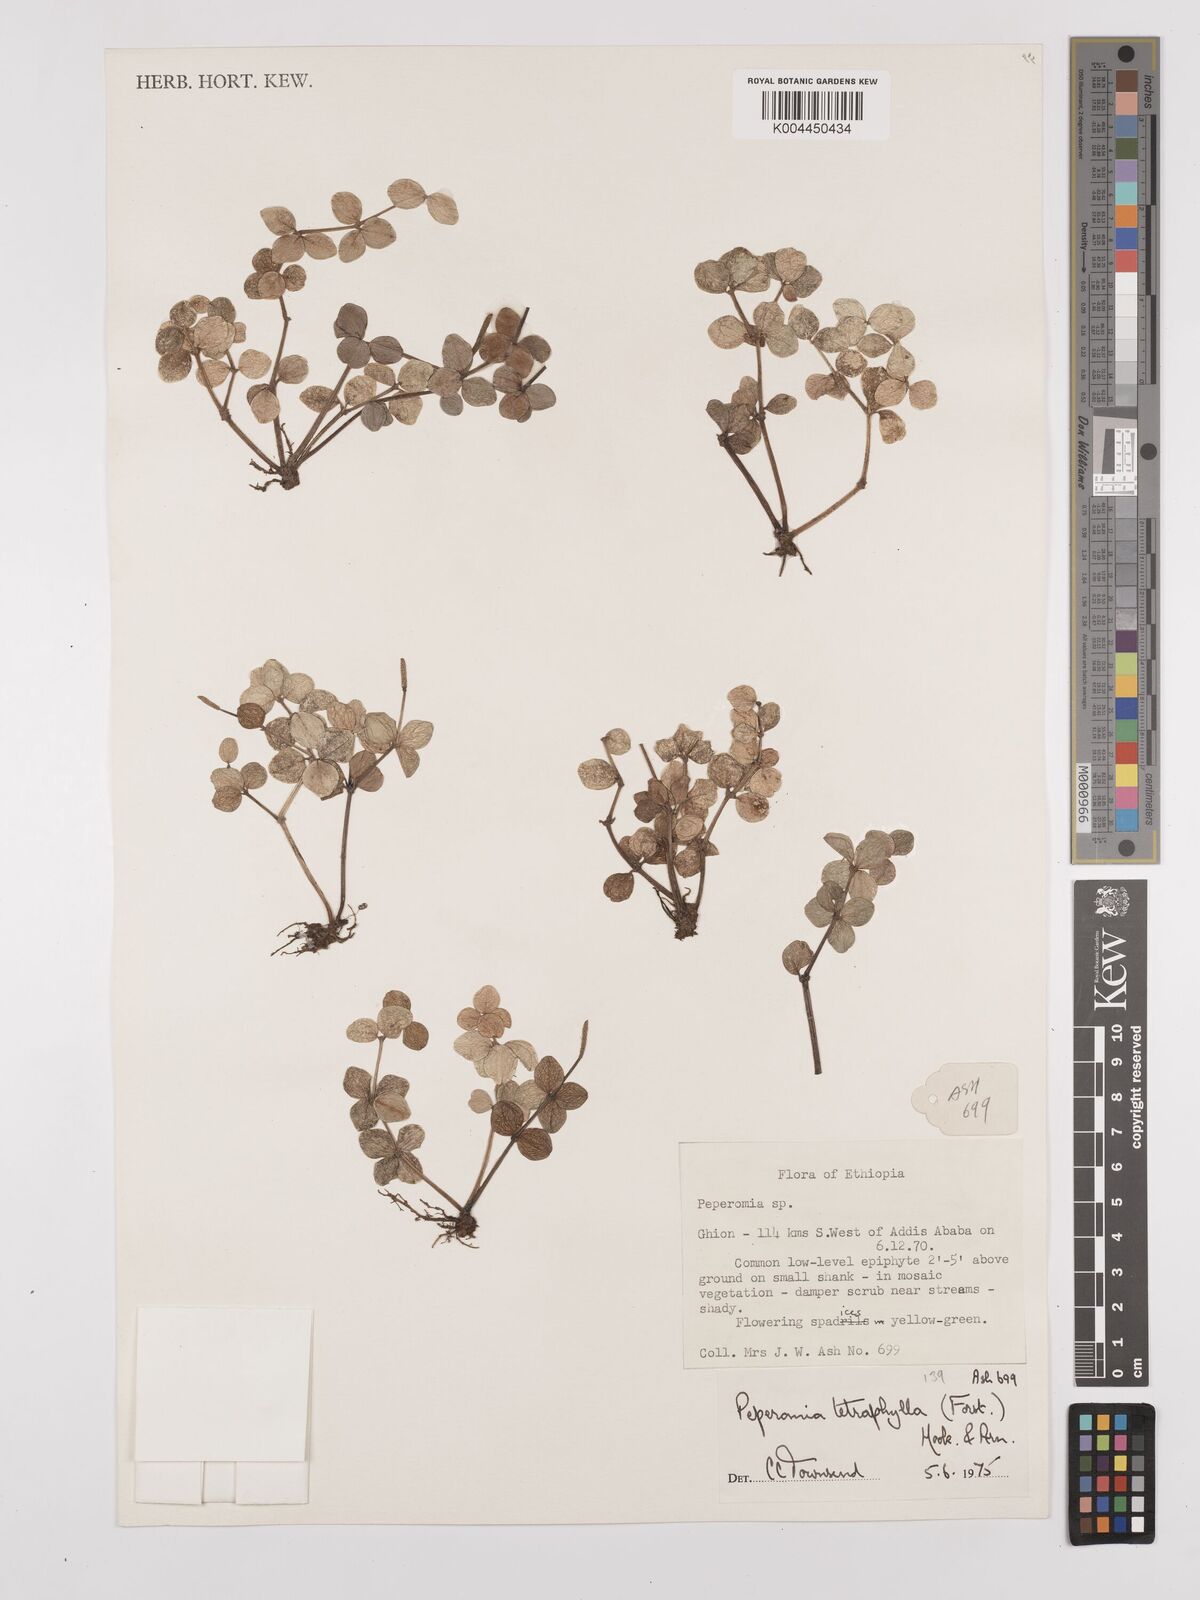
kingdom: Plantae
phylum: Tracheophyta
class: Magnoliopsida
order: Piperales
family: Piperaceae
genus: Peperomia
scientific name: Peperomia tetraphylla
